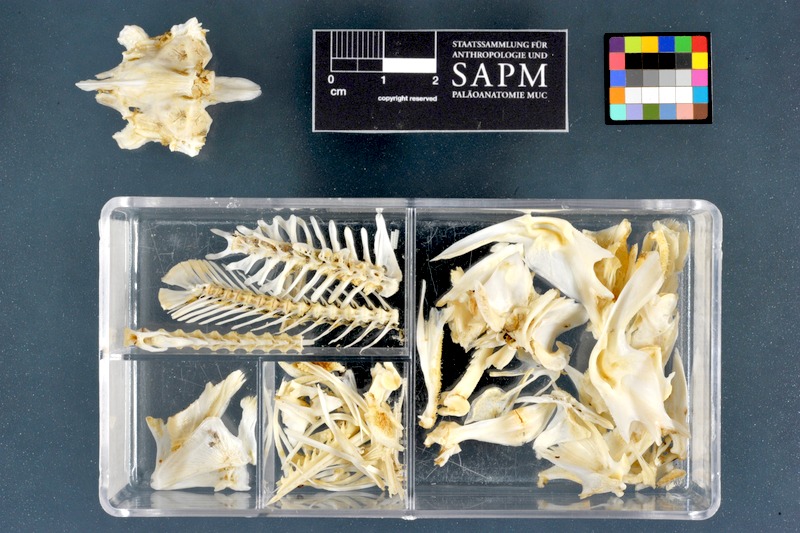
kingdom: Animalia
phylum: Chordata
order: Siluriformes
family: Claroteidae
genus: Chrysichthys
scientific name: Chrysichthys auratus
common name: Golden nile catfish
